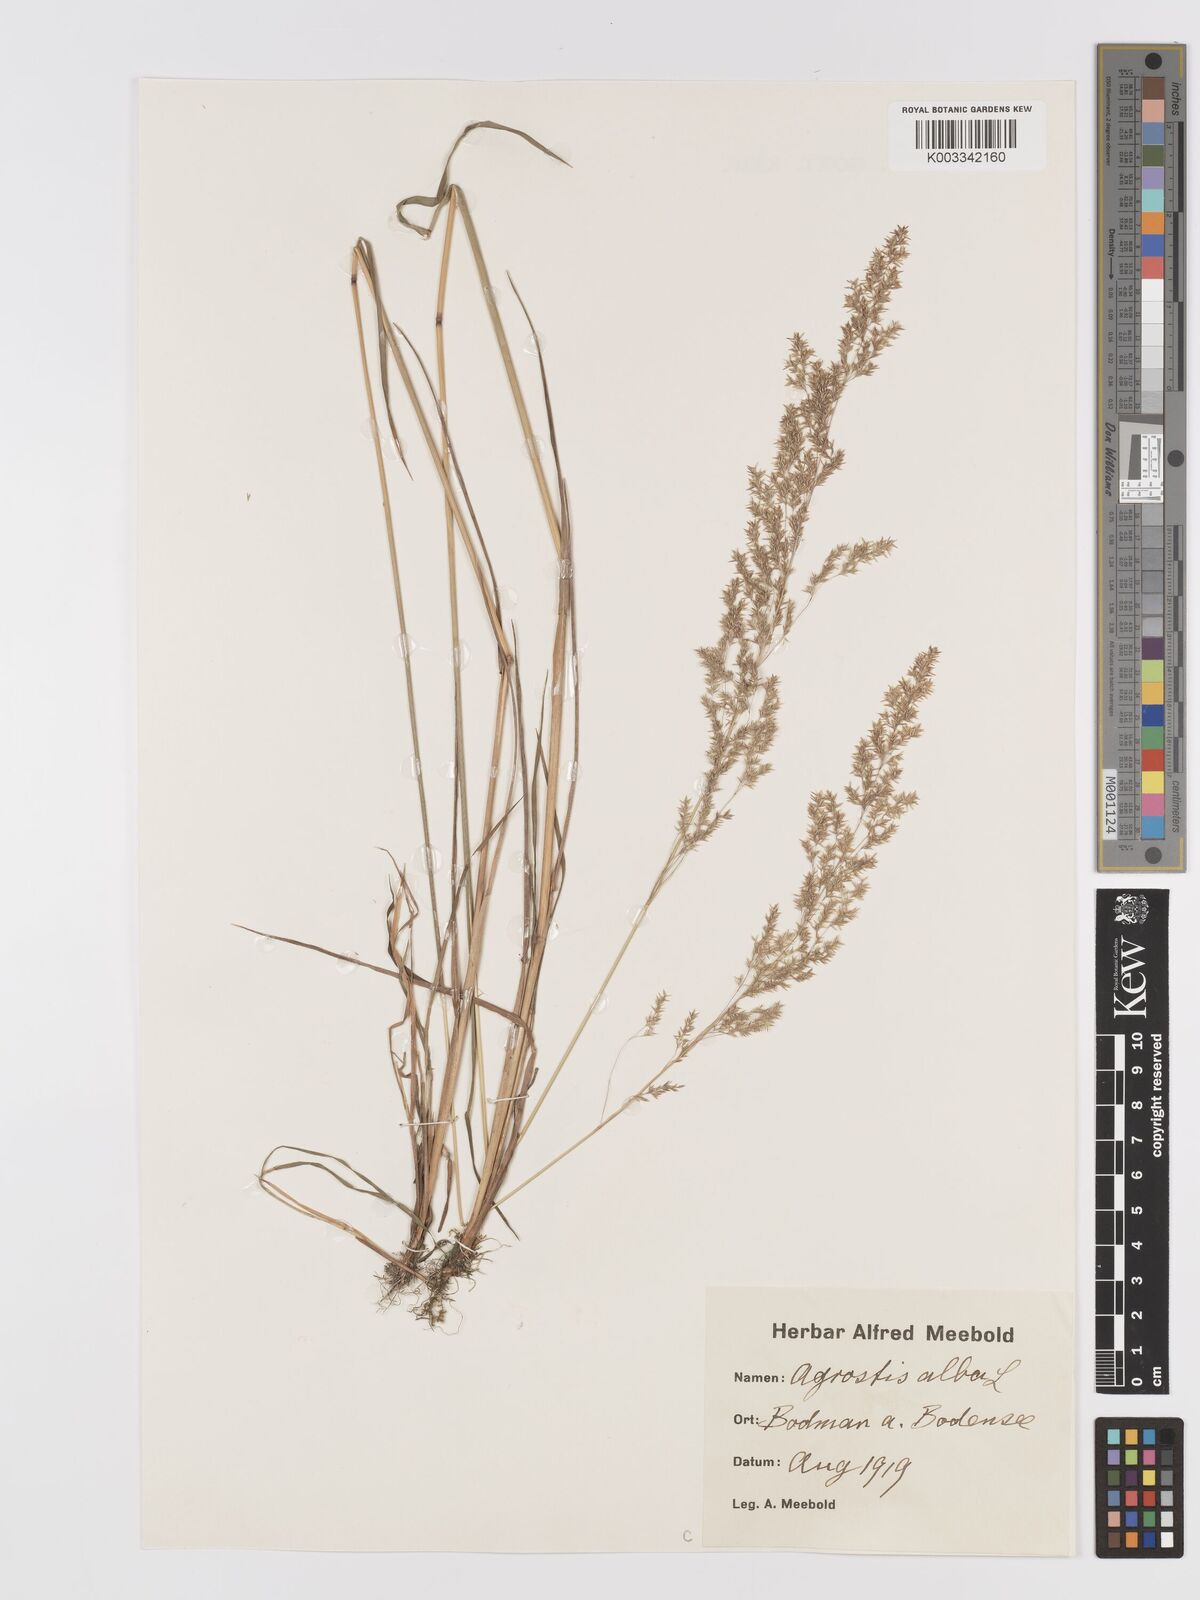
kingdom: Plantae
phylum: Tracheophyta
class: Liliopsida
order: Poales
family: Poaceae
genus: Agrostis
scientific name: Agrostis stolonifera
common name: Creeping bentgrass
